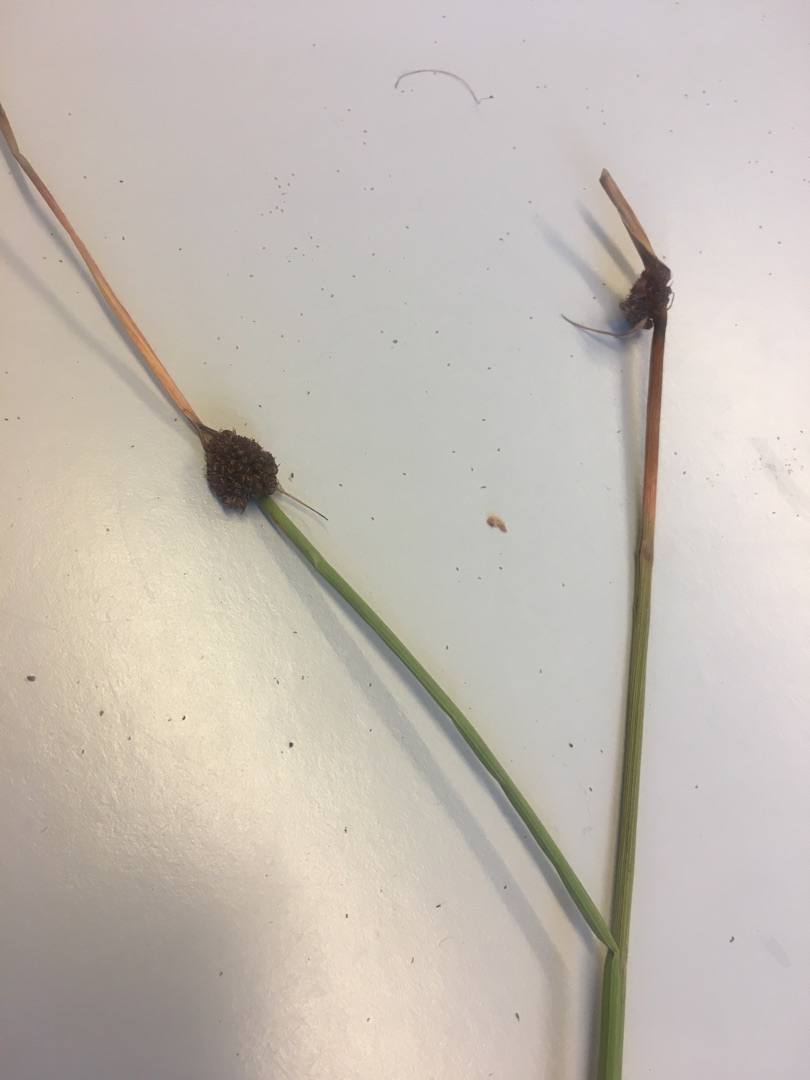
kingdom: Plantae
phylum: Tracheophyta
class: Liliopsida
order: Poales
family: Juncaceae
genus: Juncus
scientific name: Juncus conglomeratus
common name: Knop-siv
